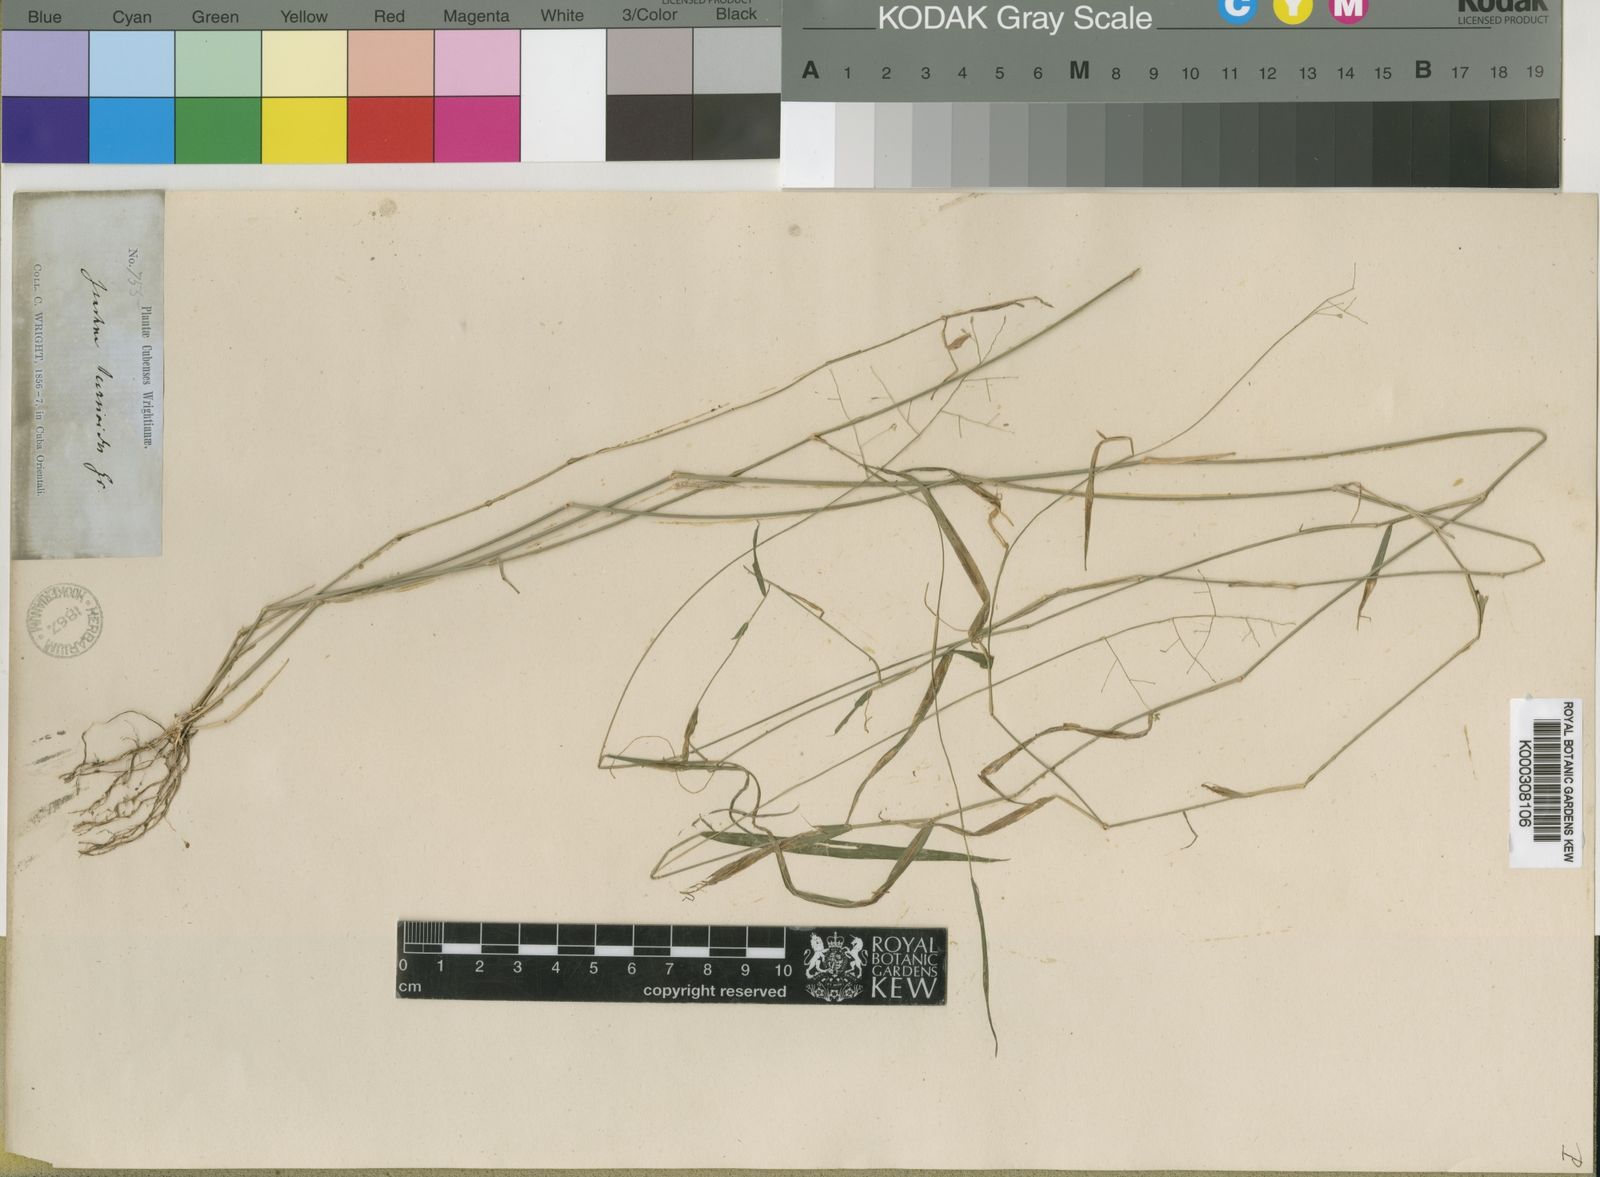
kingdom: Plantae
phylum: Tracheophyta
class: Liliopsida
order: Poales
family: Poaceae
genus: Isachne
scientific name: Isachne leersioides
